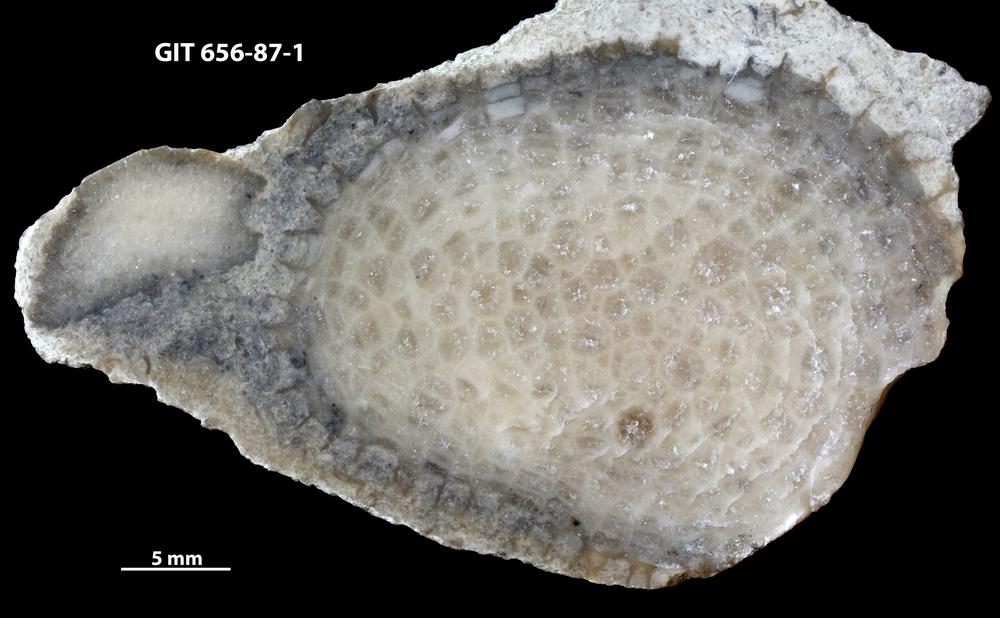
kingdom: Animalia
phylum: Porifera
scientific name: Porifera
